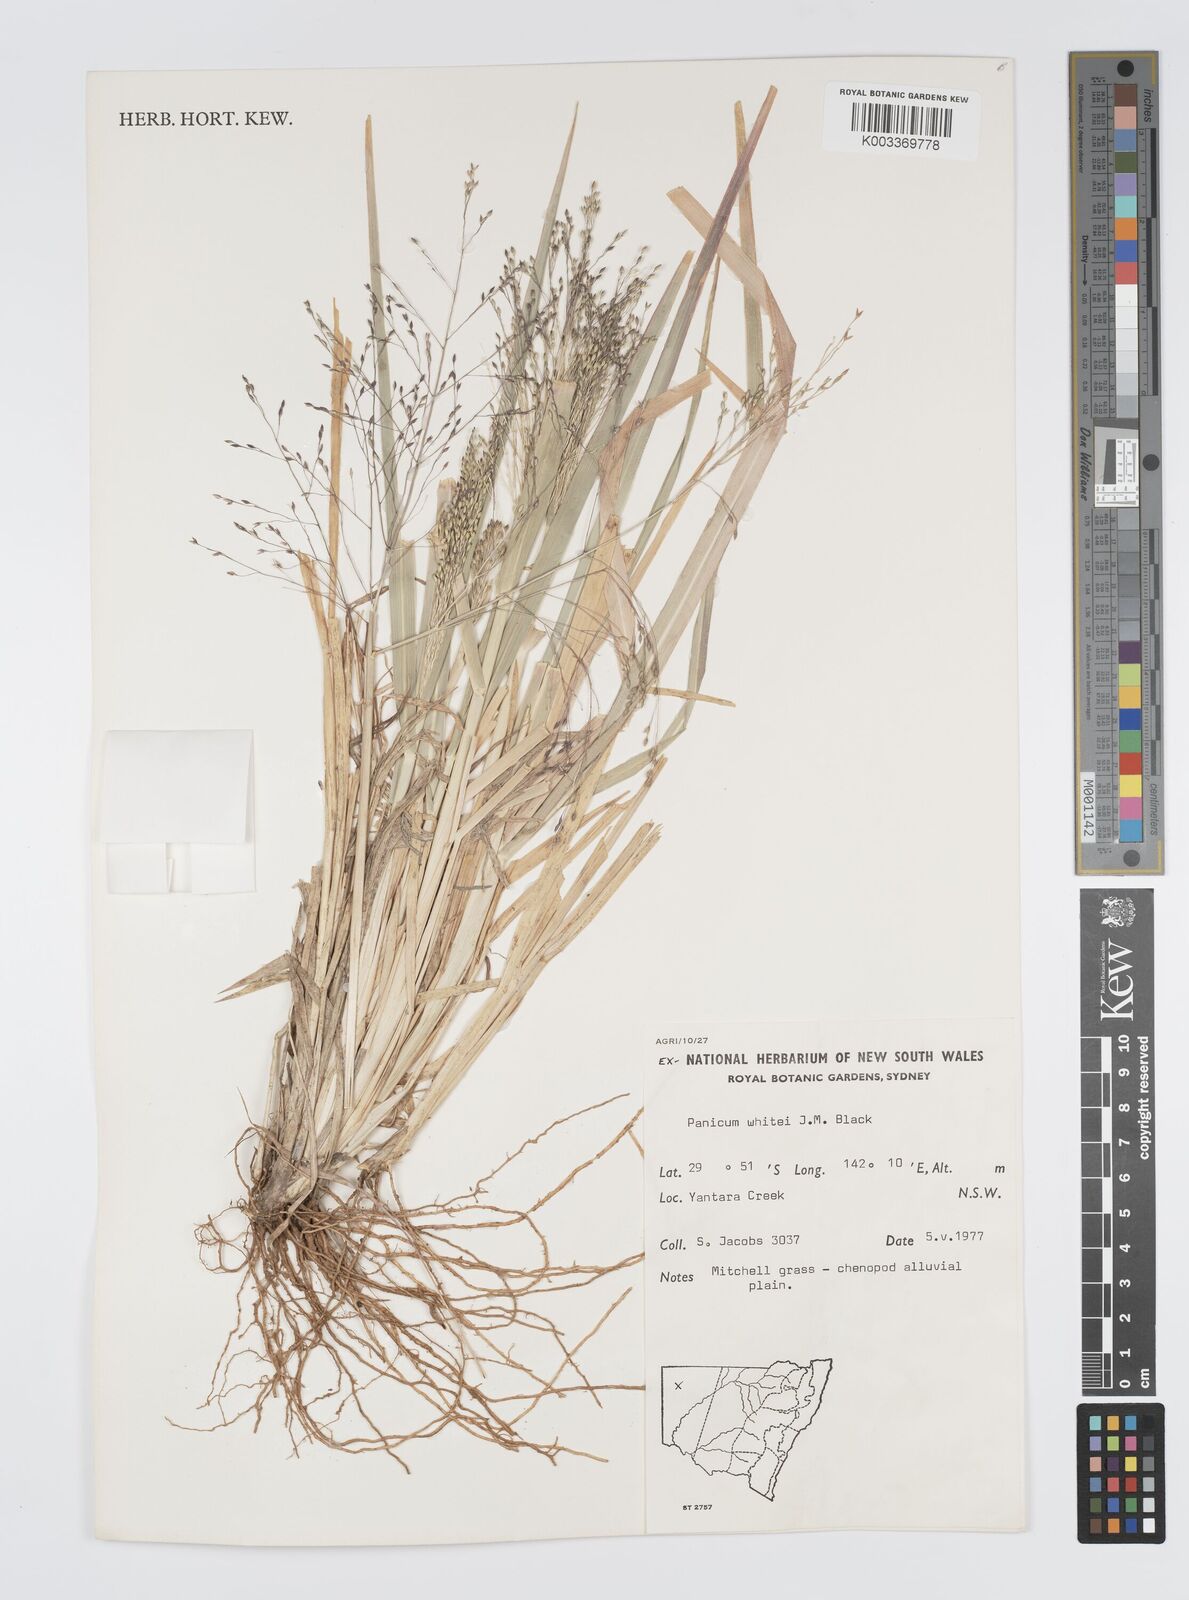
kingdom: Plantae
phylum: Tracheophyta
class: Liliopsida
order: Poales
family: Poaceae
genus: Panicum
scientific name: Panicum laevinode
